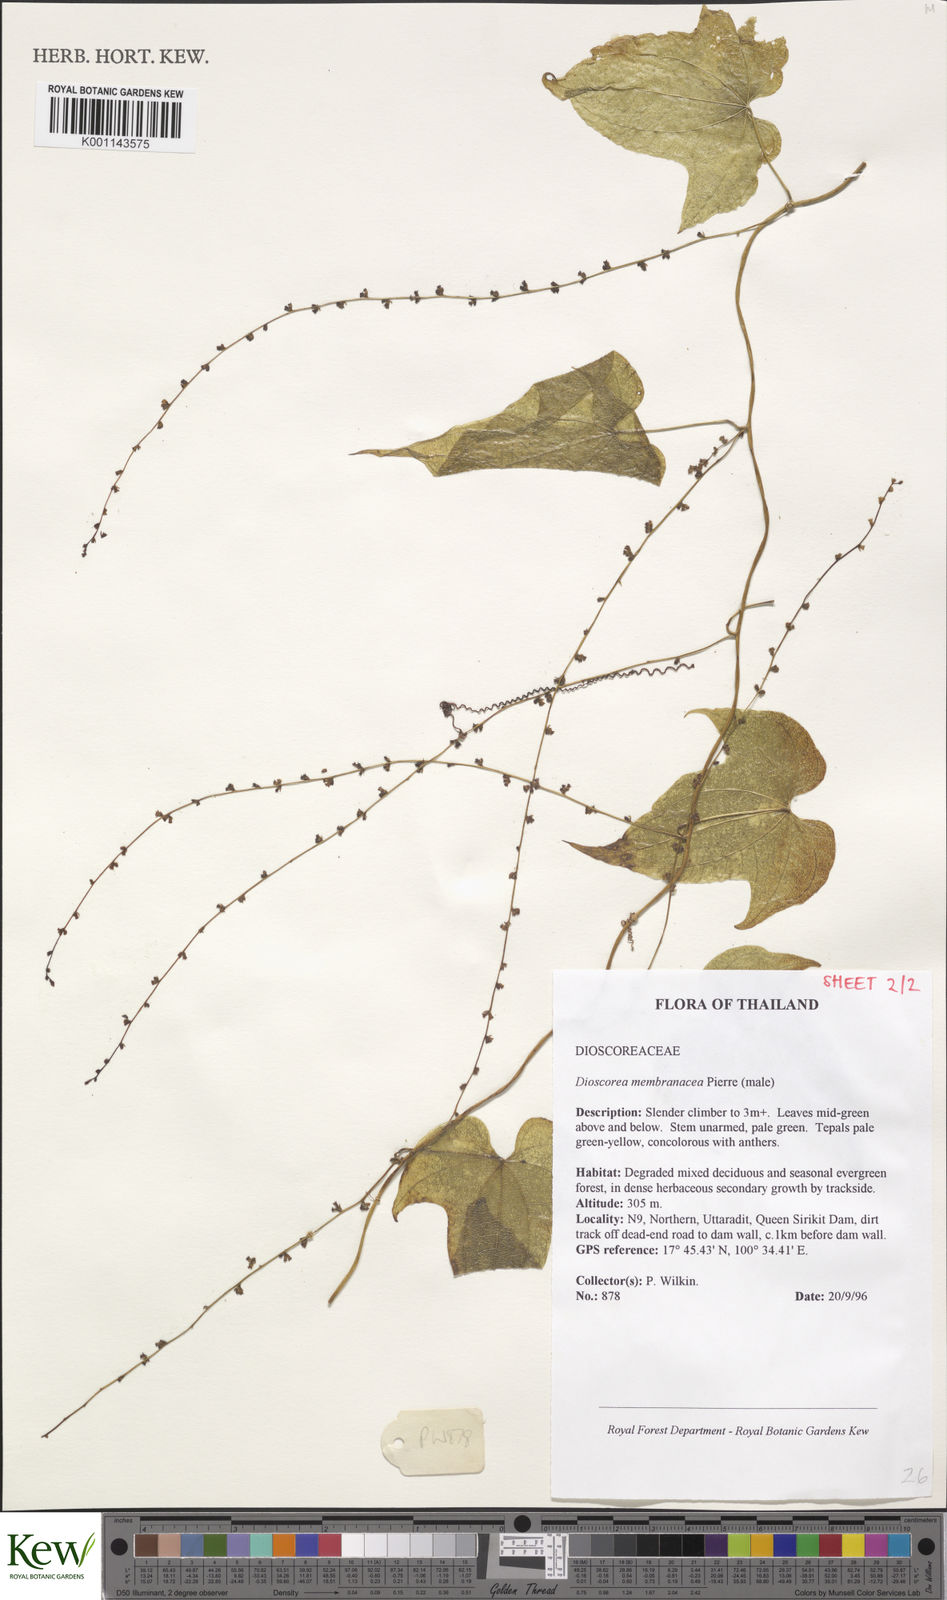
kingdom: Plantae
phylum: Tracheophyta
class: Liliopsida
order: Dioscoreales
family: Dioscoreaceae
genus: Dioscorea
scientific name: Dioscorea membranacea
